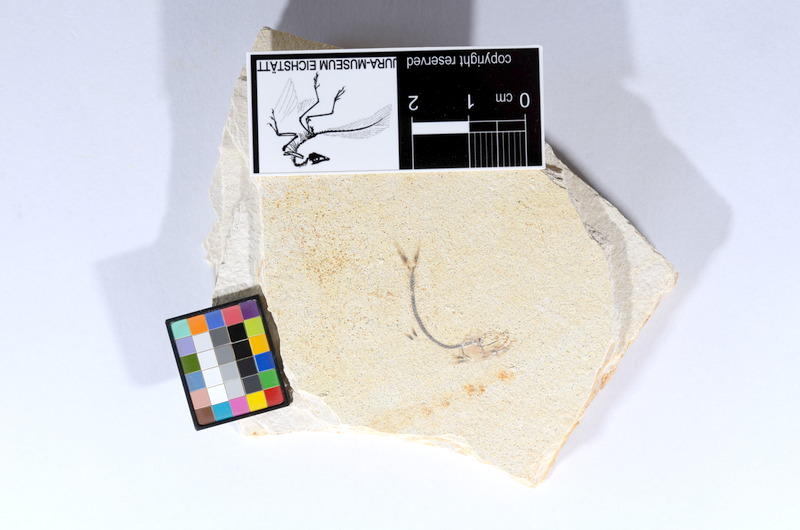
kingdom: Animalia
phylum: Chordata
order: Salmoniformes
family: Orthogonikleithridae
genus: Orthogonikleithrus
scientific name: Orthogonikleithrus hoelli
